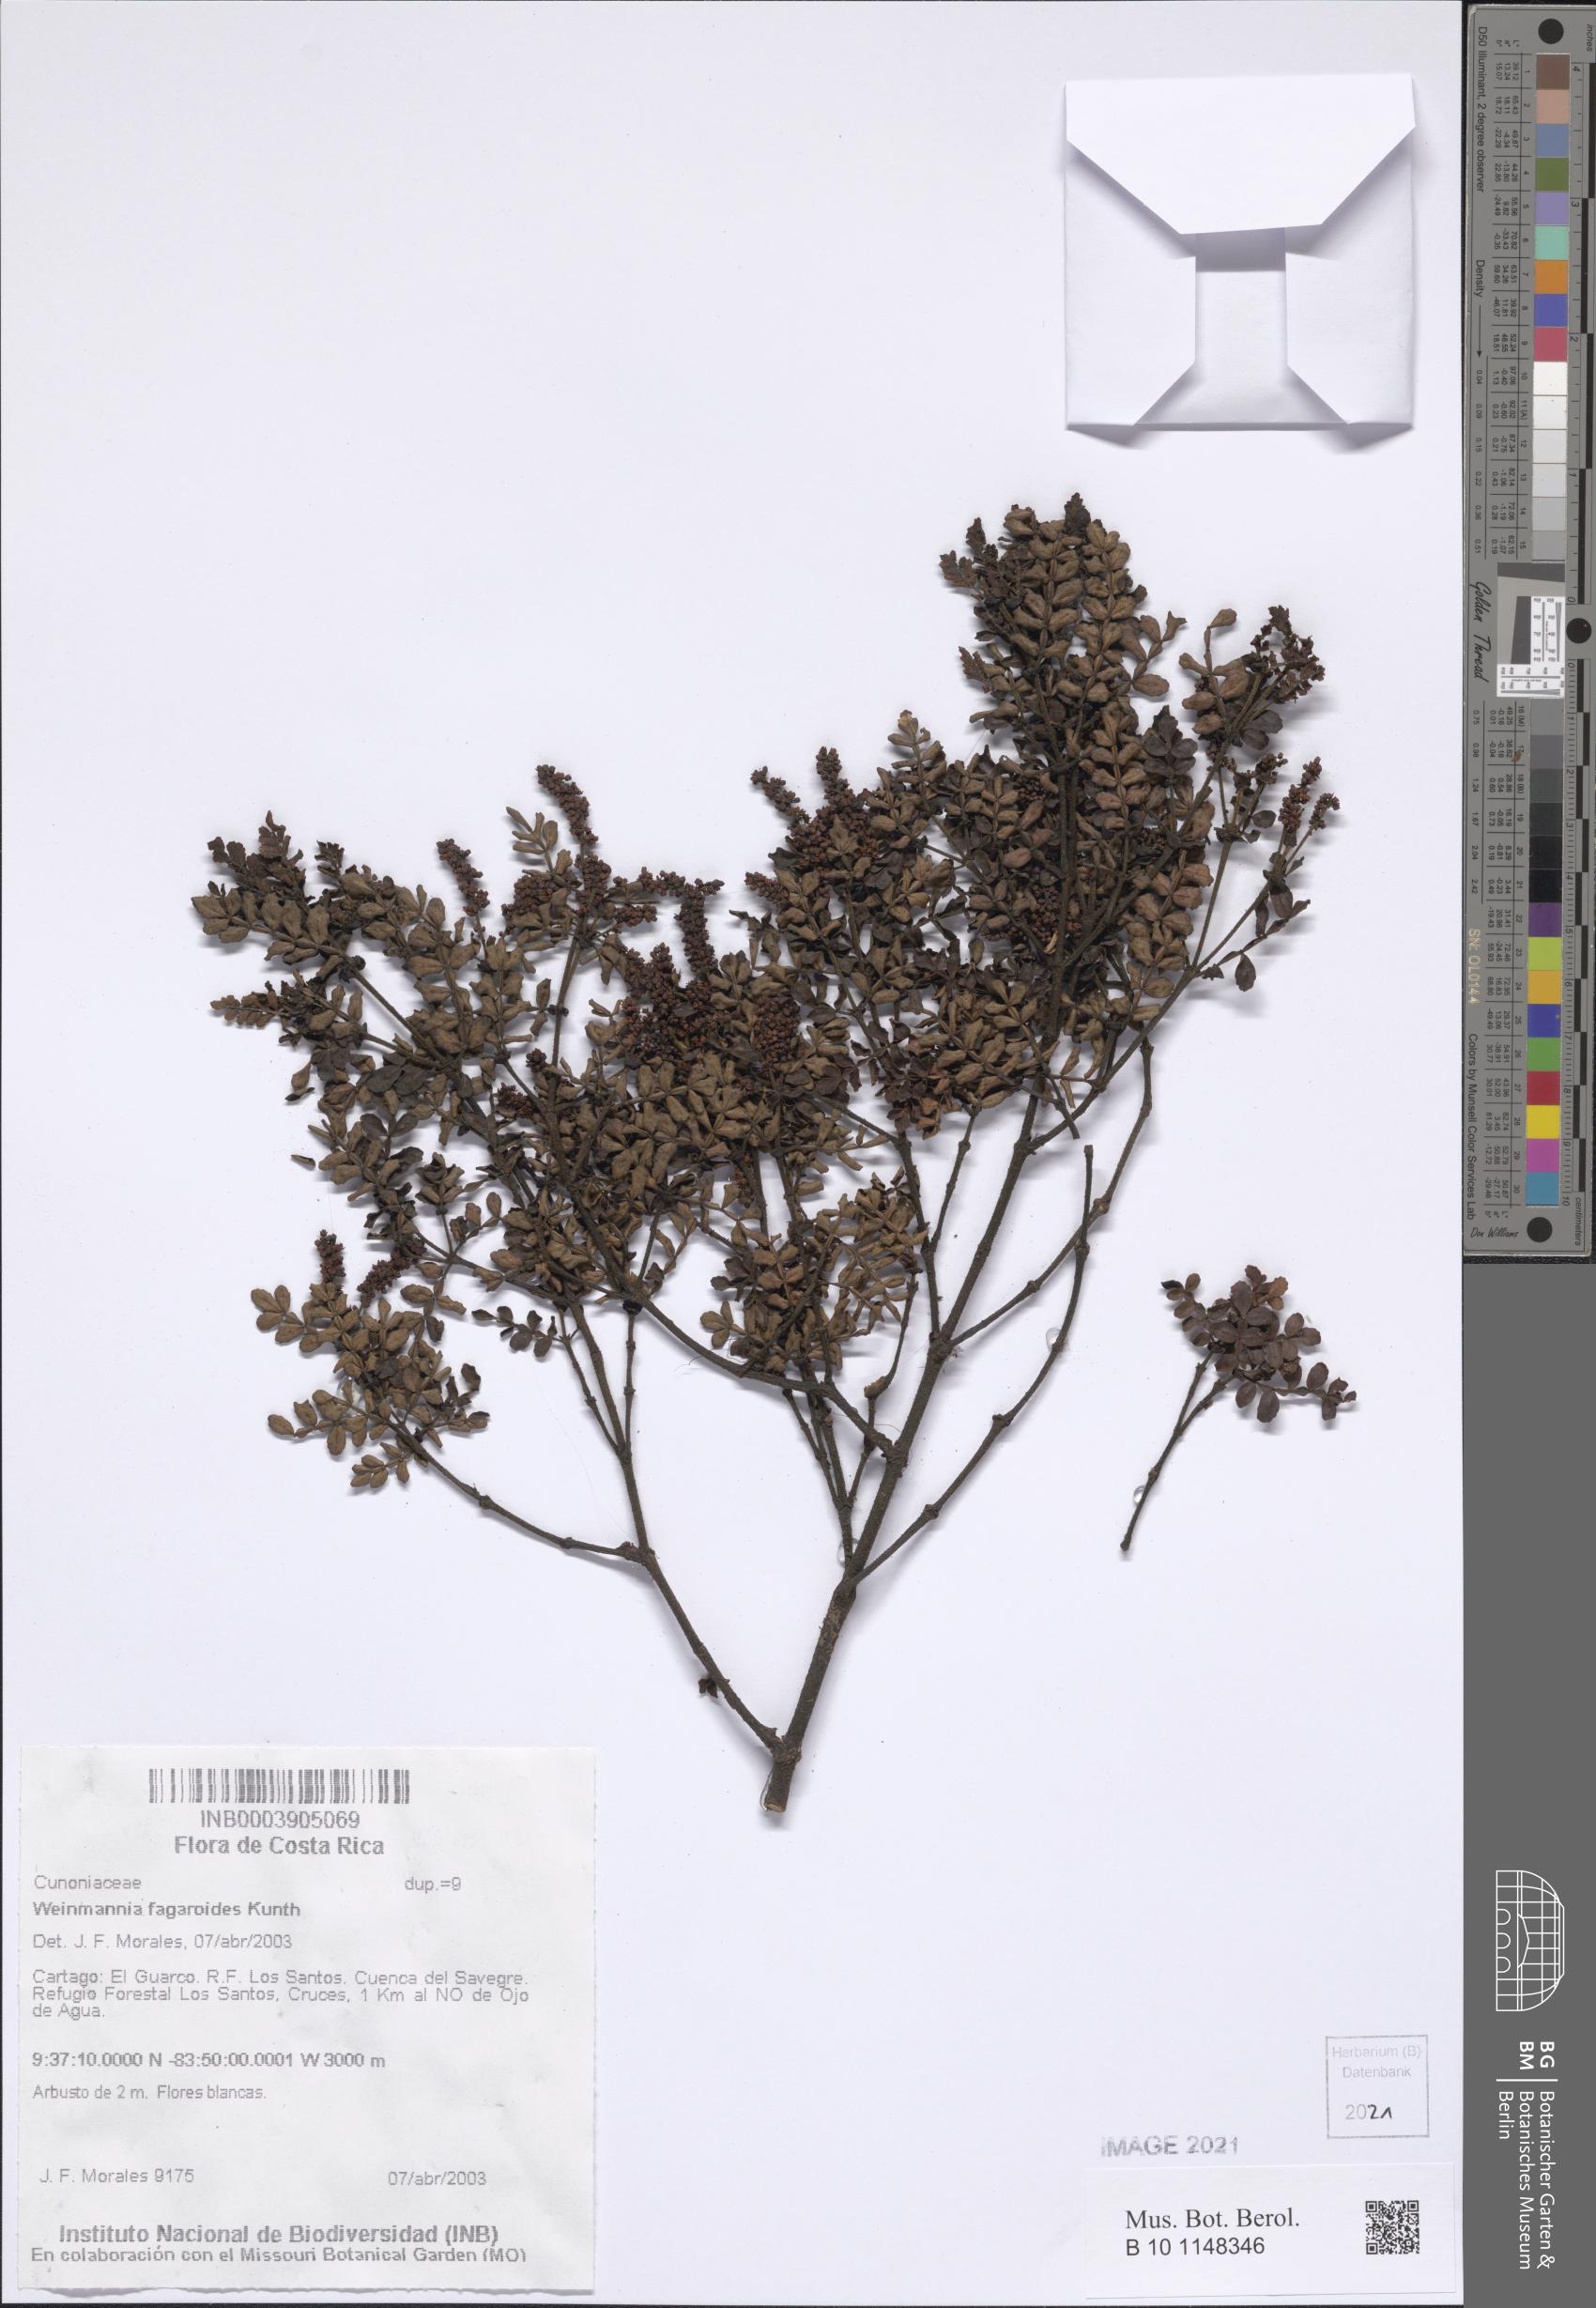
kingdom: Plantae
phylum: Tracheophyta
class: Magnoliopsida
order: Oxalidales
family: Cunoniaceae
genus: Weinmannia
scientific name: Weinmannia fagaroides
